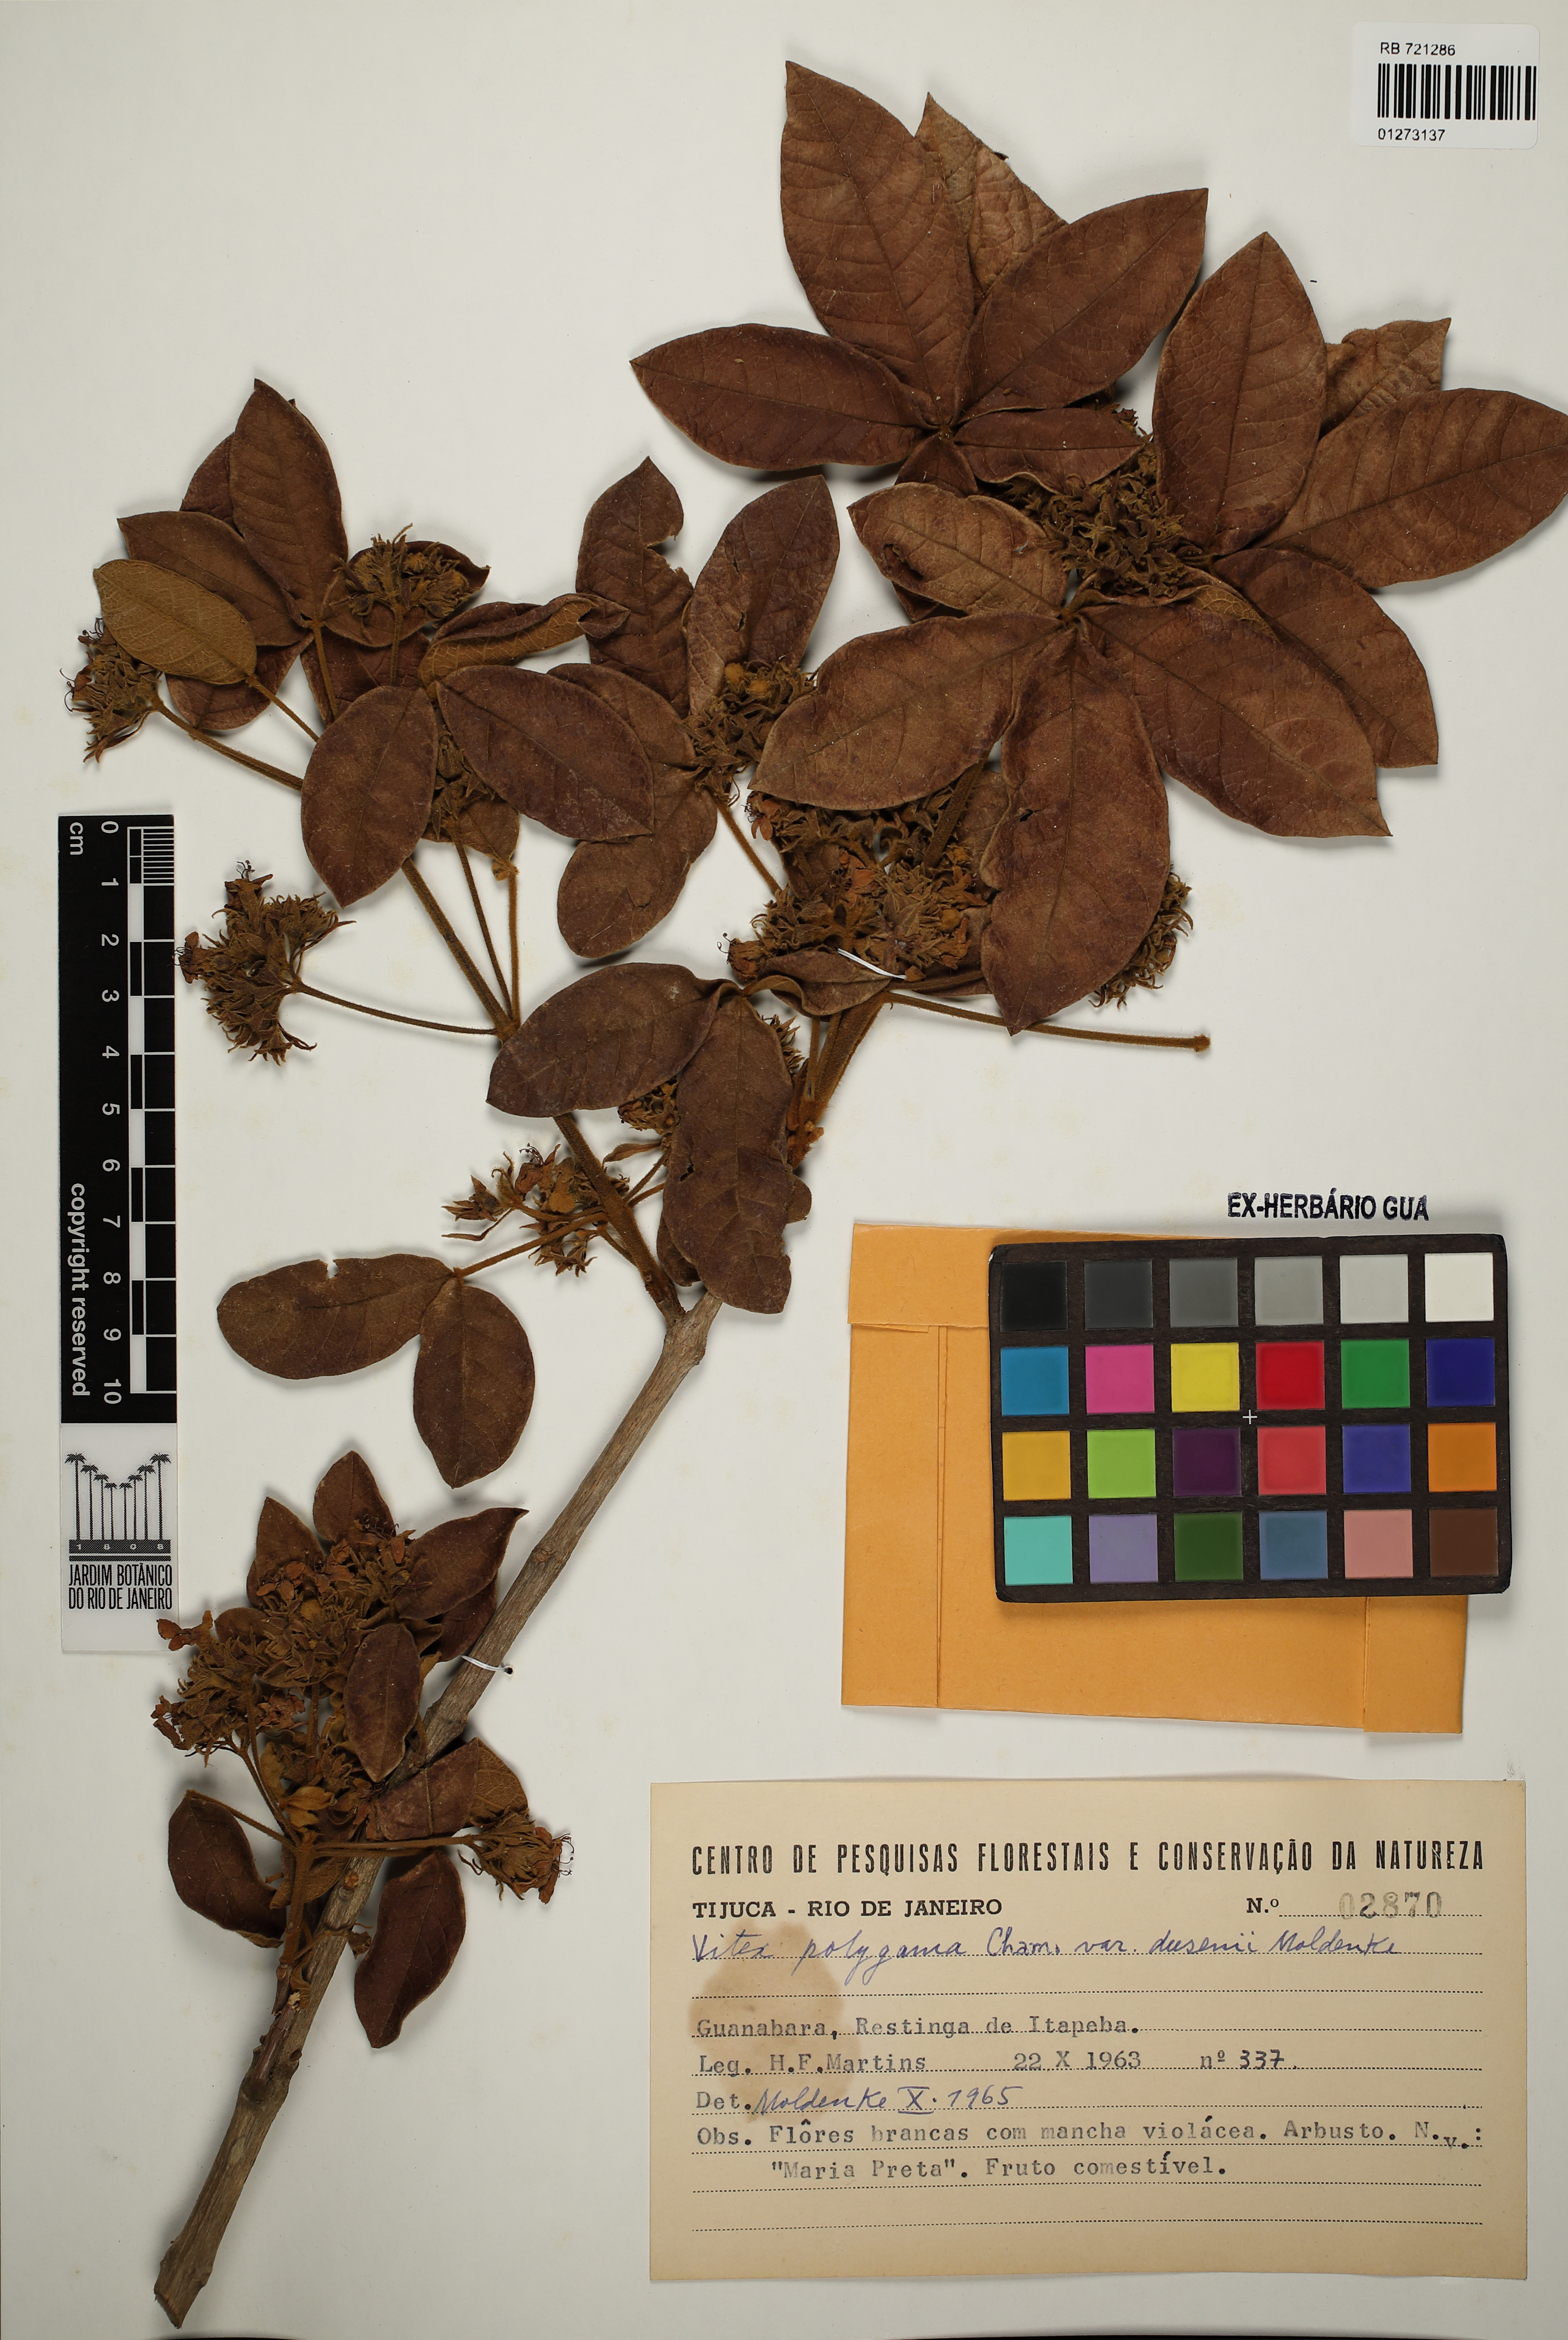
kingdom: Plantae
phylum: Tracheophyta
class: Magnoliopsida
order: Lamiales
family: Lamiaceae
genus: Vitex
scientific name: Vitex polygama
